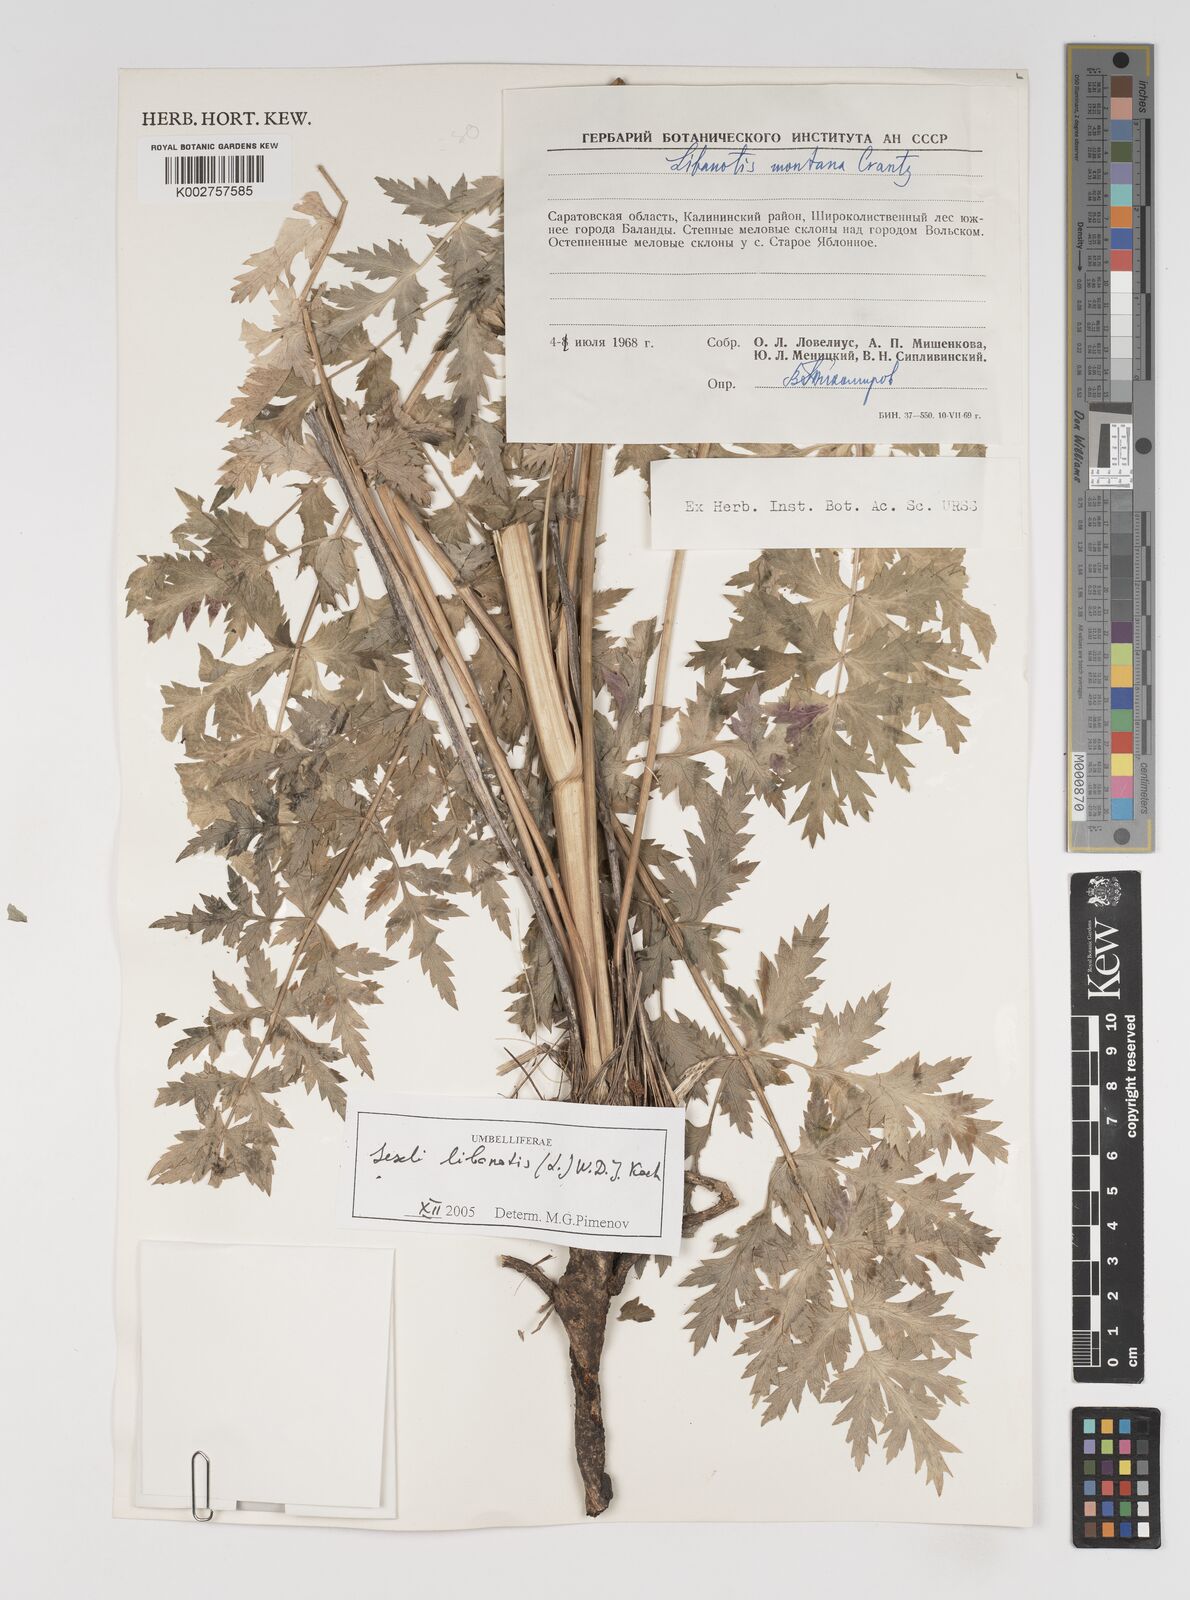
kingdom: Plantae
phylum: Tracheophyta
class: Magnoliopsida
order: Apiales
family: Apiaceae
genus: Seseli
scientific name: Seseli libanotis
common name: Mooncarrot
